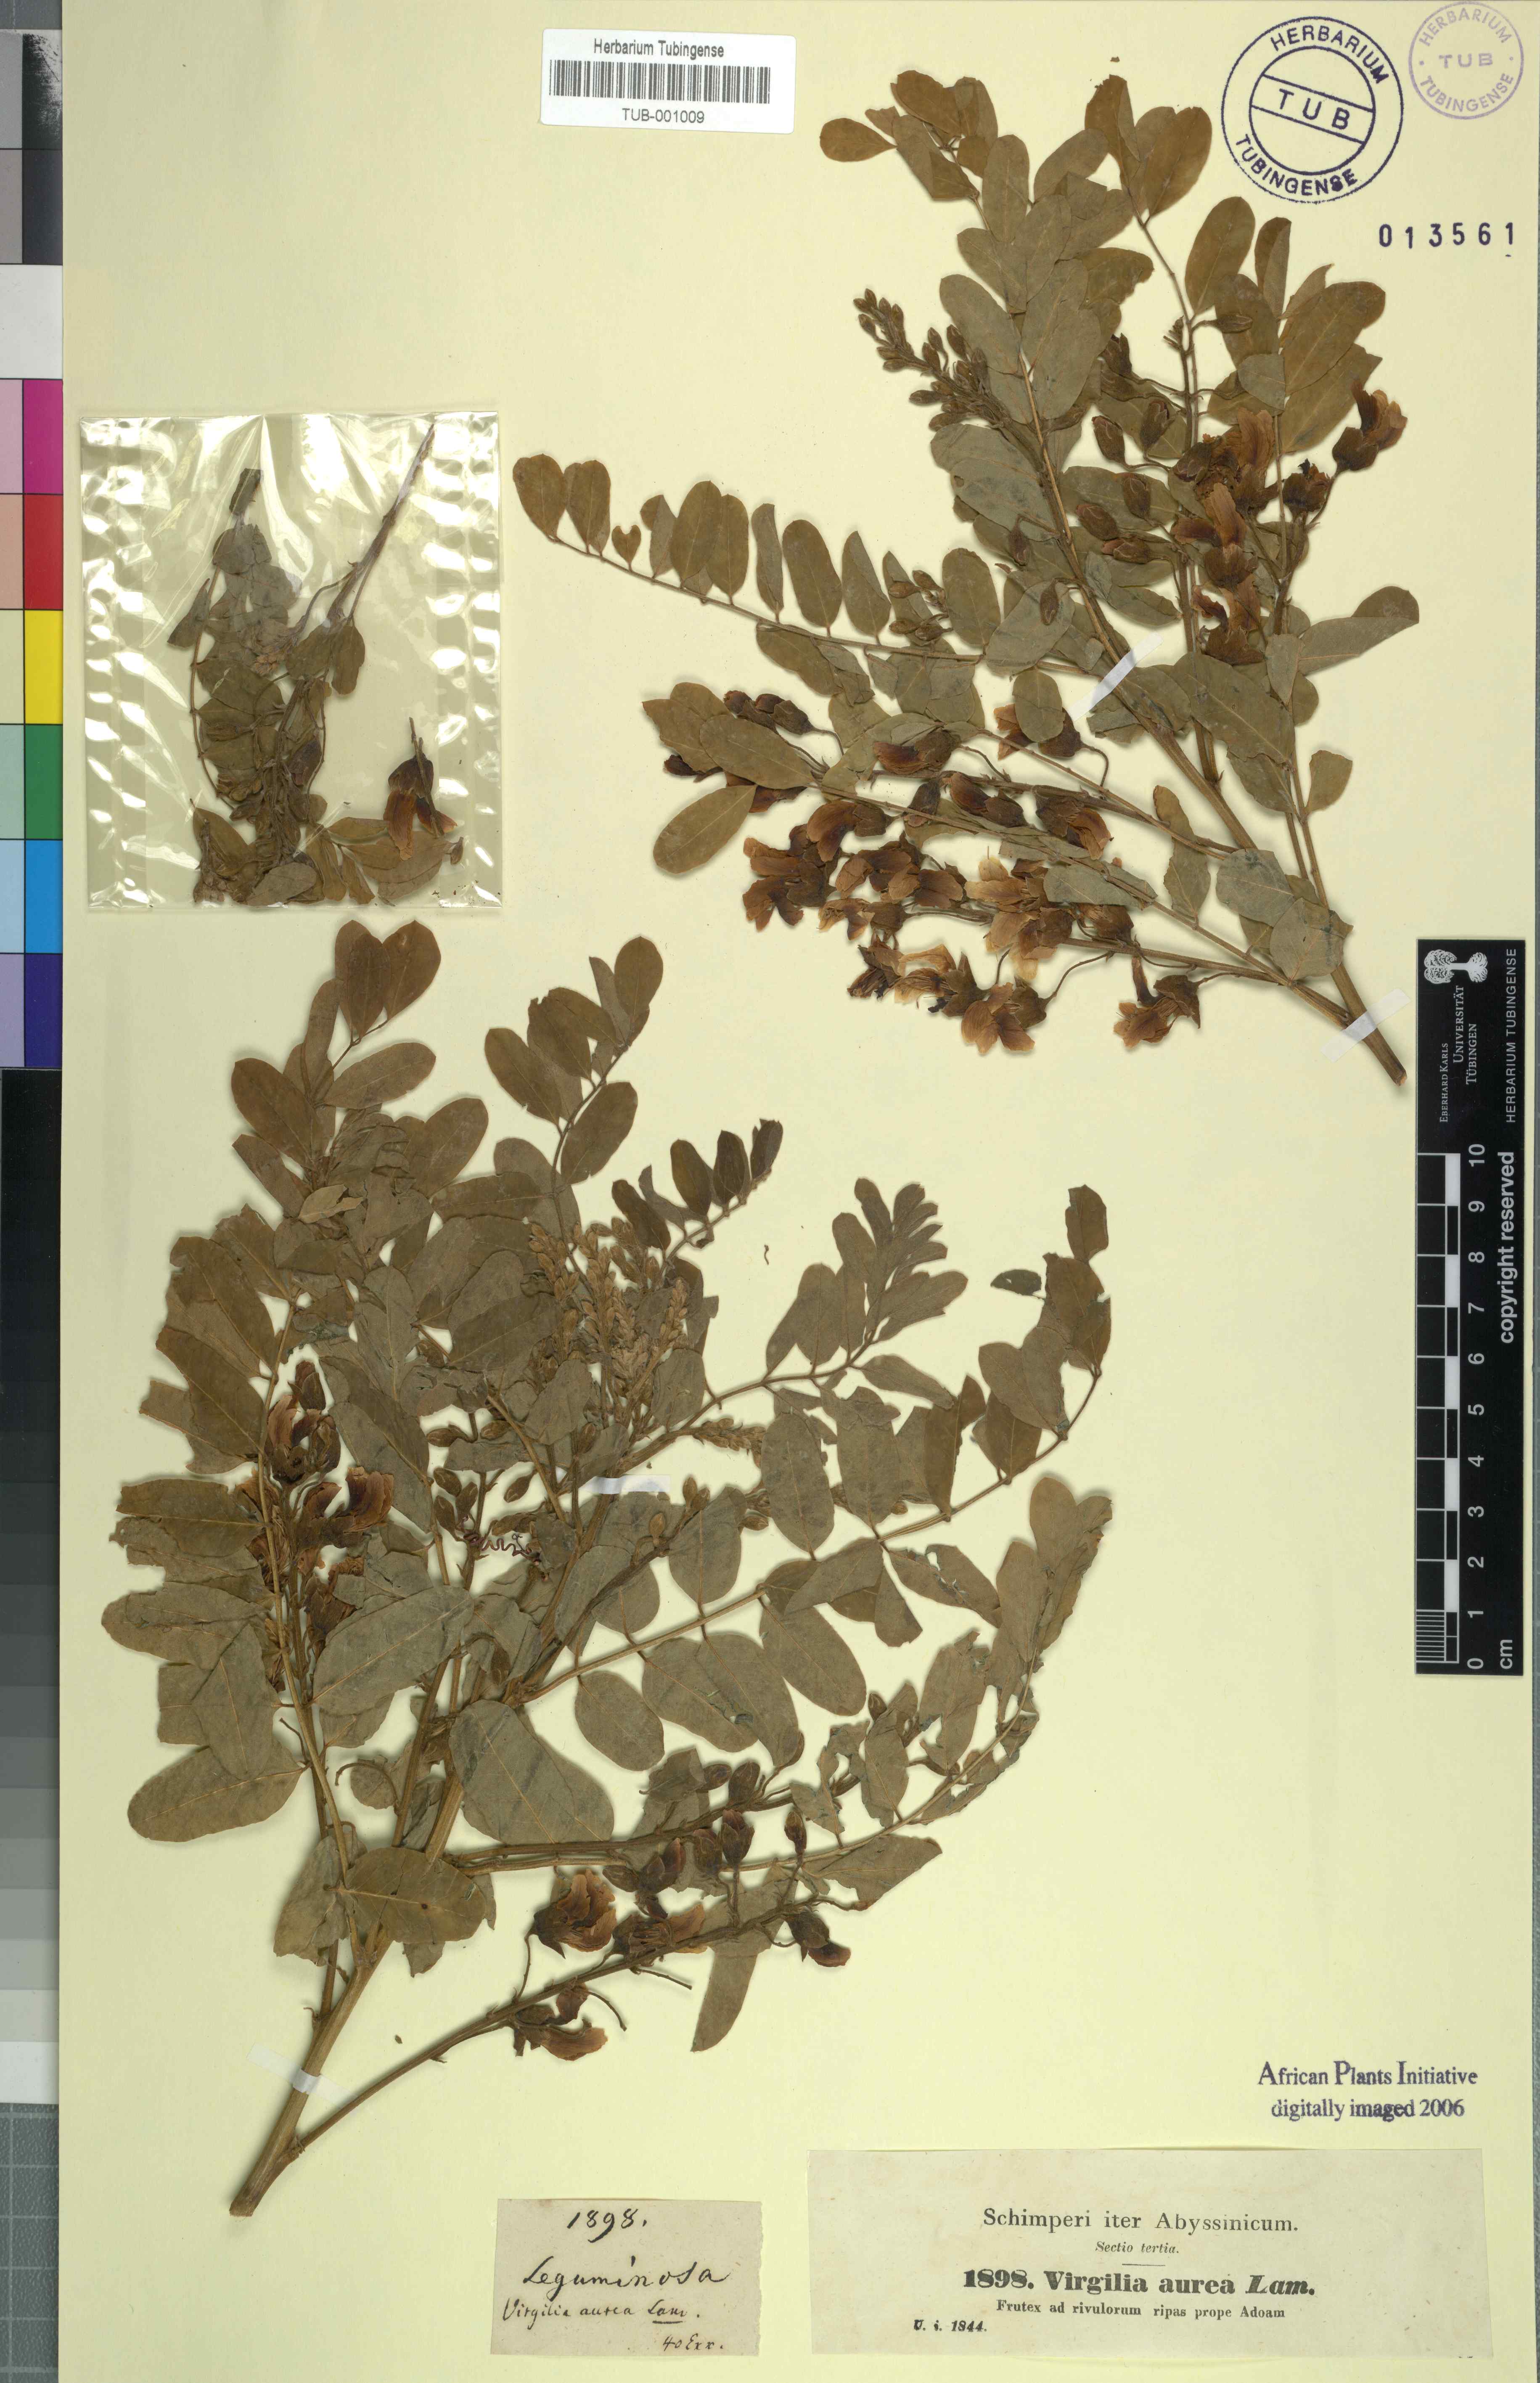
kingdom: Plantae
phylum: Tracheophyta
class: Magnoliopsida
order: Fabales
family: Fabaceae
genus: Calpurnia
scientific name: Calpurnia aurea
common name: Wild laburnum
